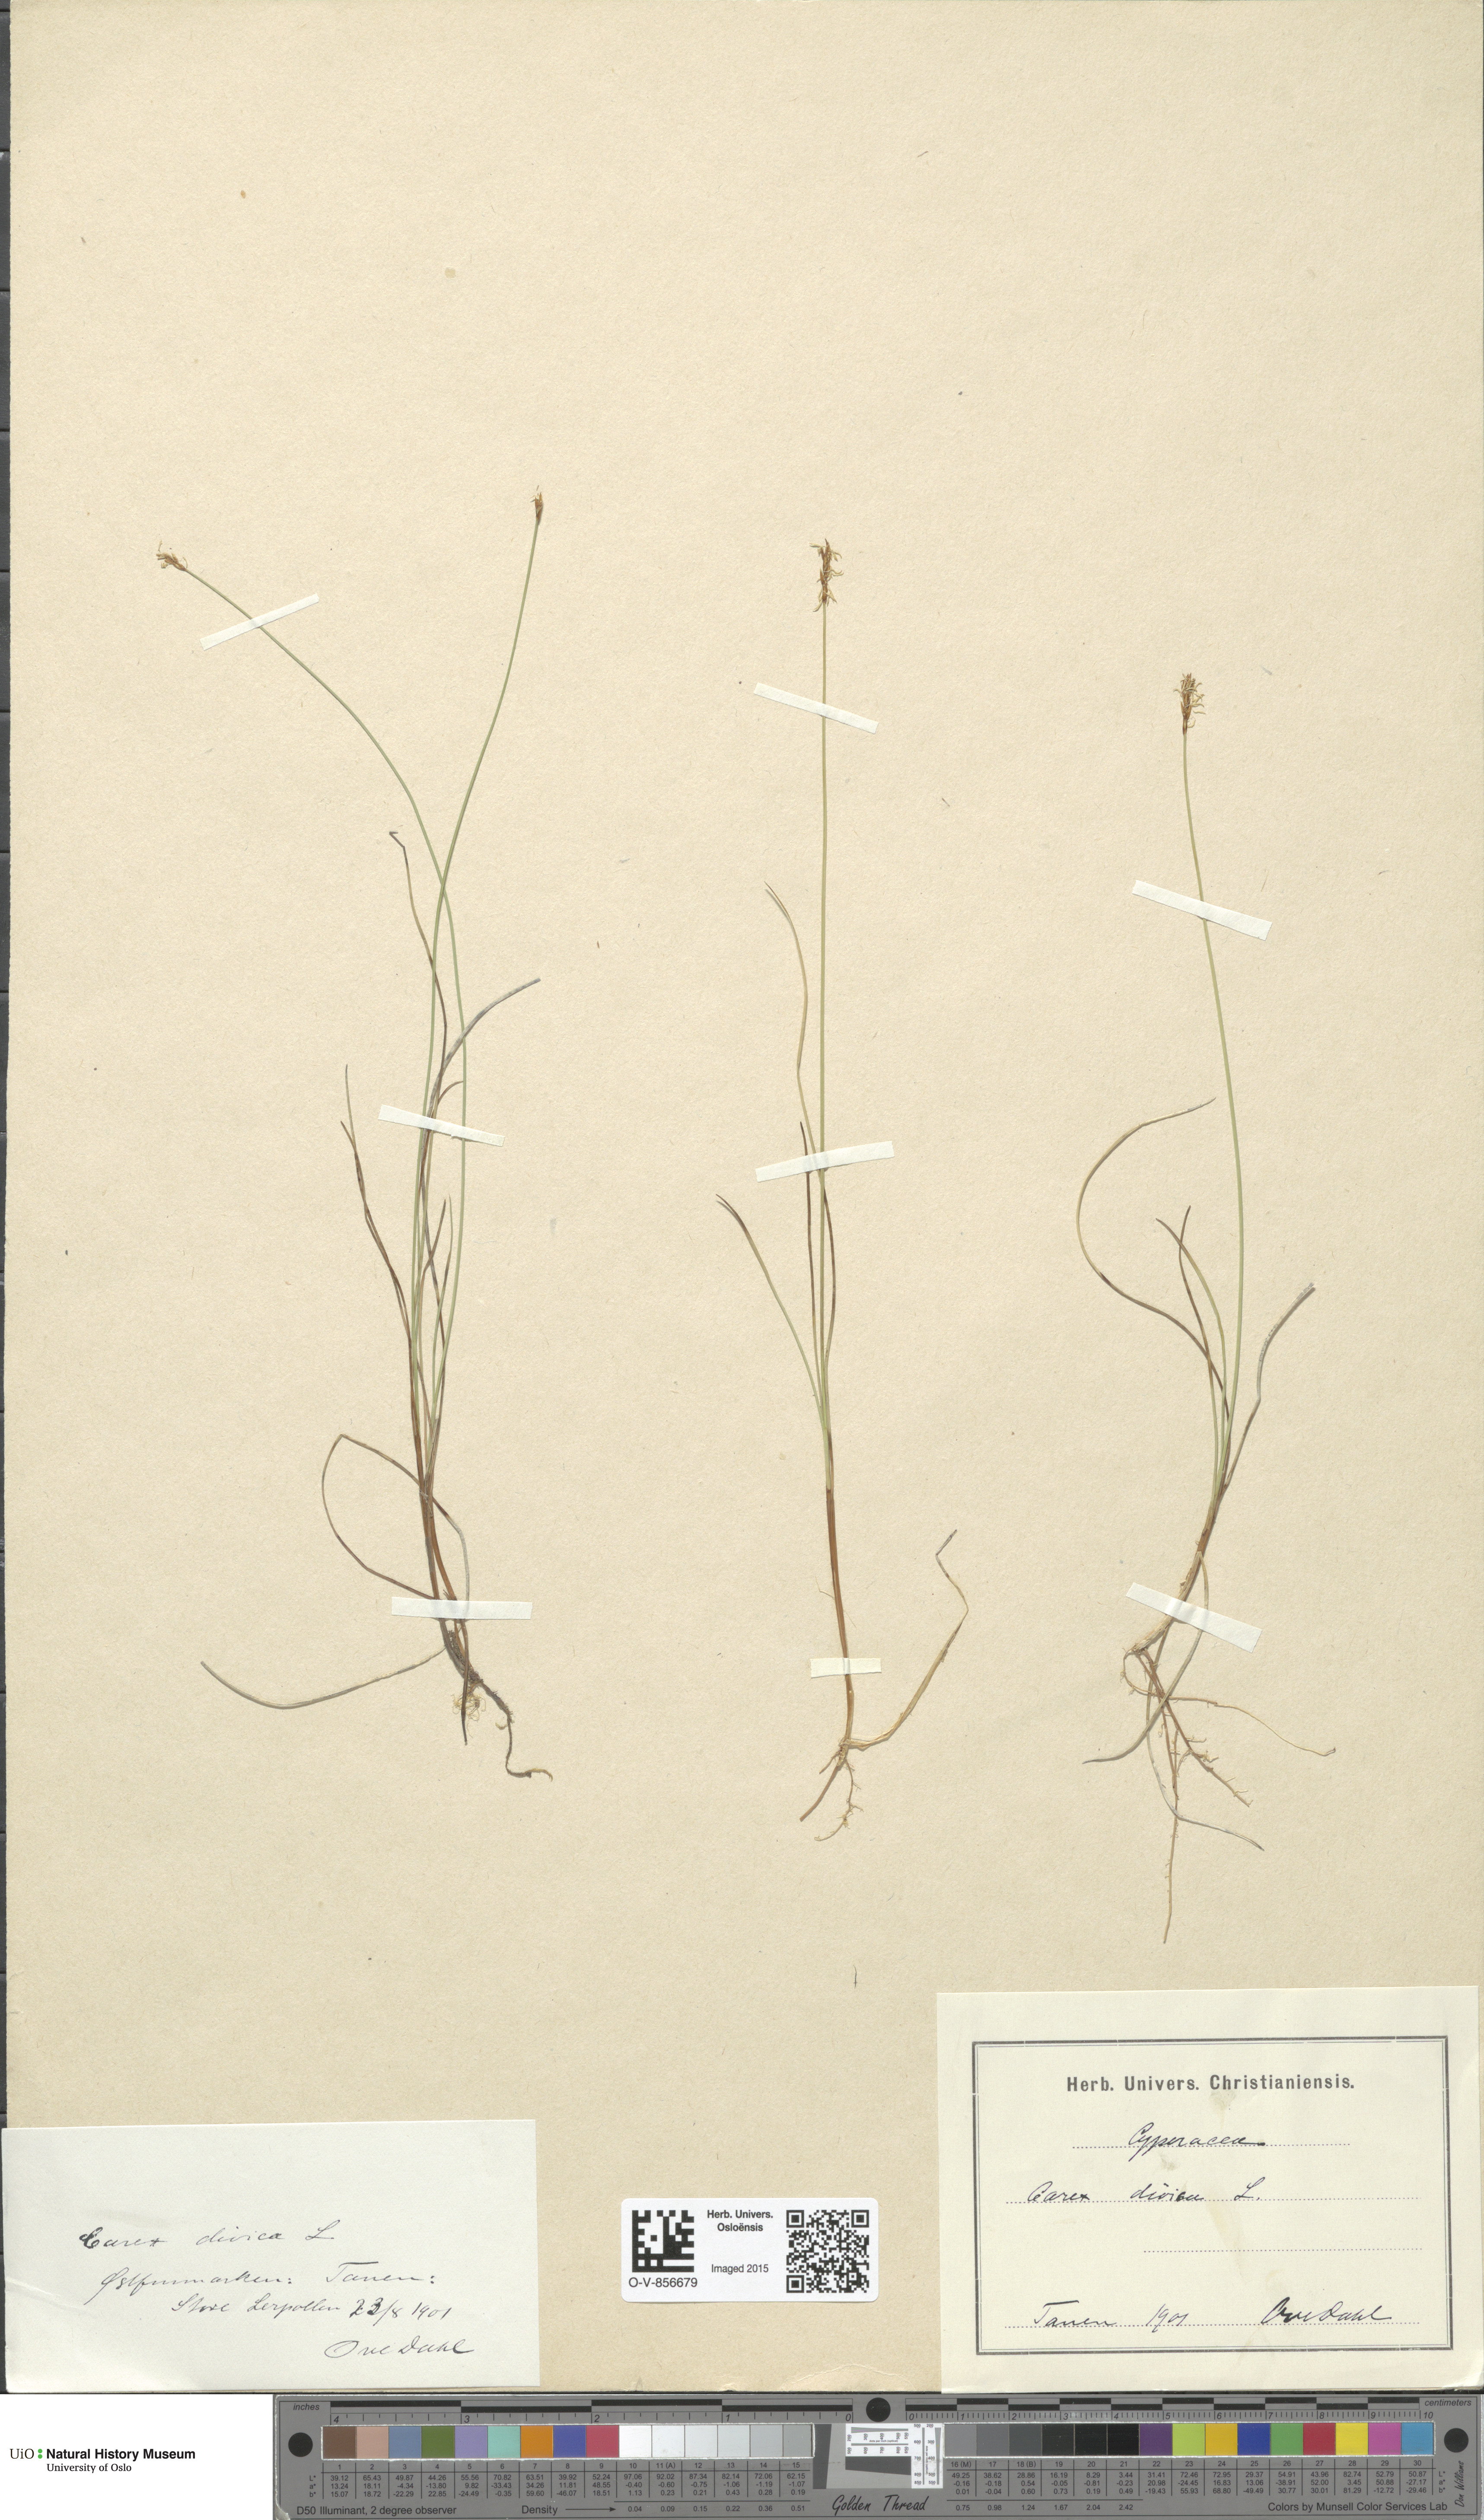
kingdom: Plantae
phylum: Tracheophyta
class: Liliopsida
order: Poales
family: Cyperaceae
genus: Carex
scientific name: Carex dioica
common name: Dioecious sedge
